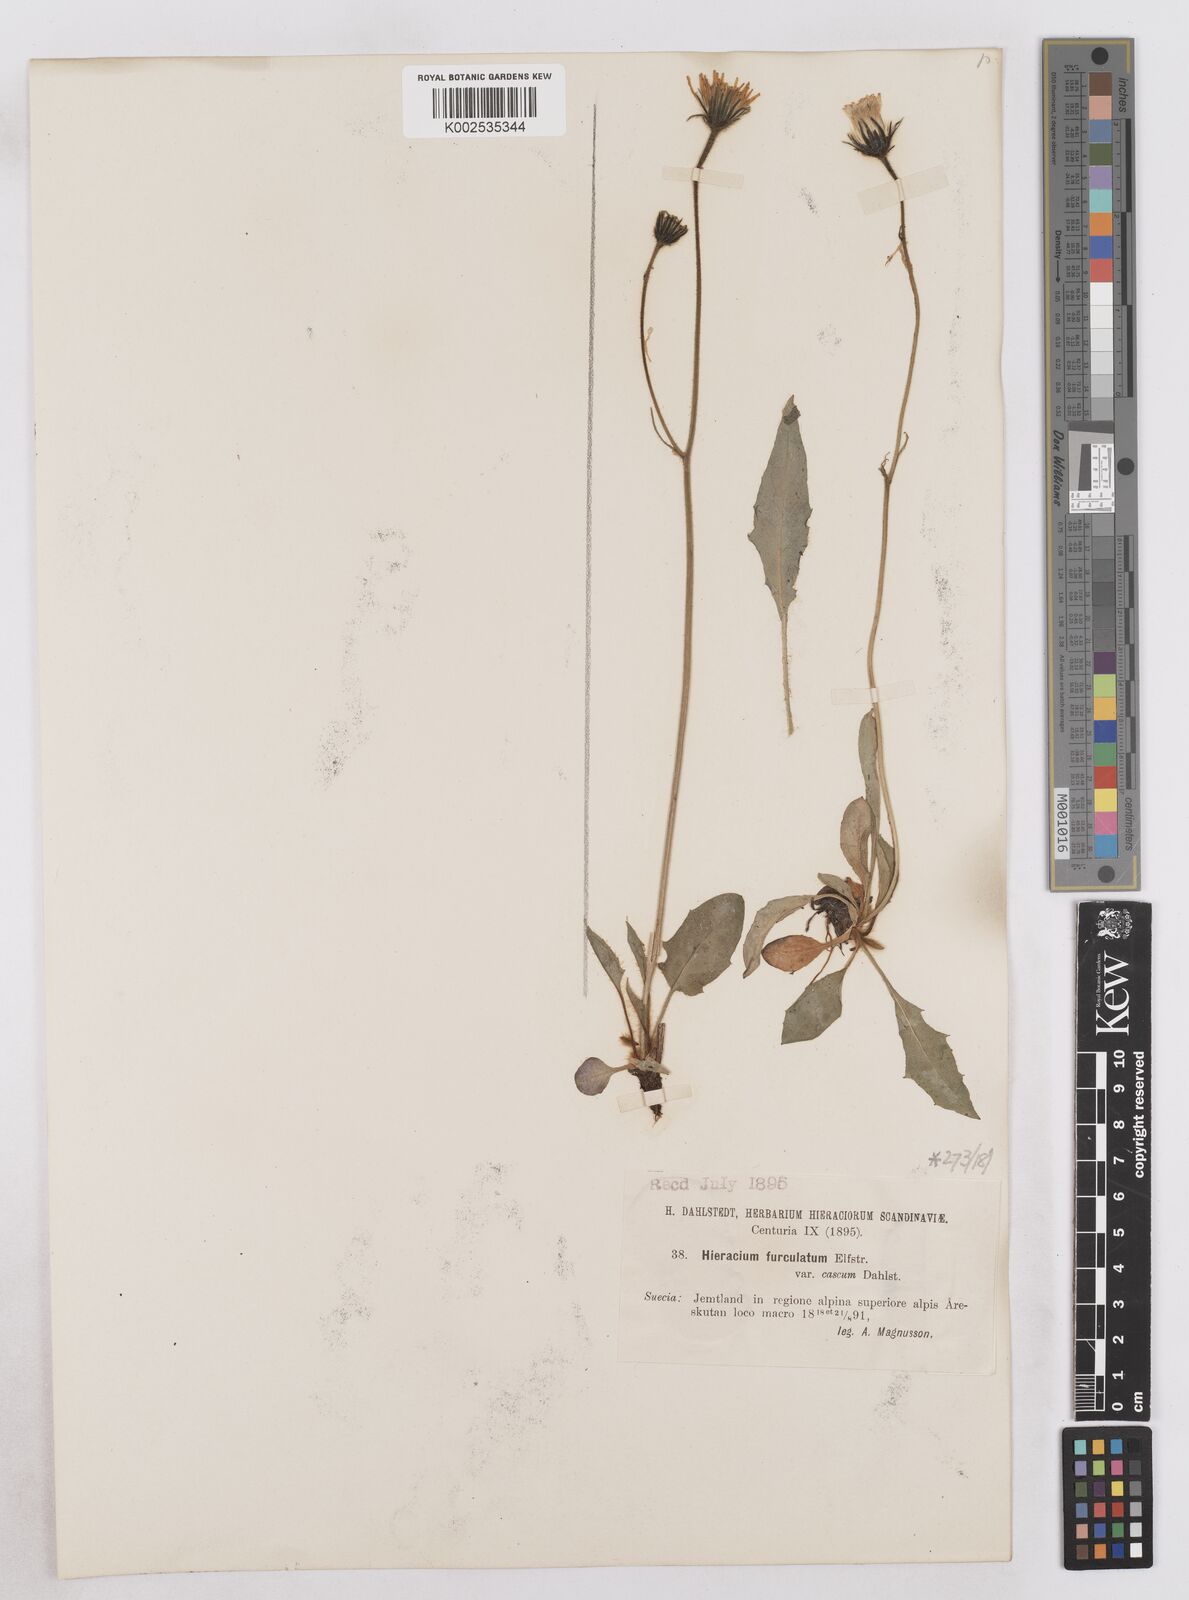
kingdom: Plantae
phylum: Tracheophyta
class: Magnoliopsida
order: Asterales
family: Asteraceae
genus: Hieracium
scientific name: Hieracium conspurcans
